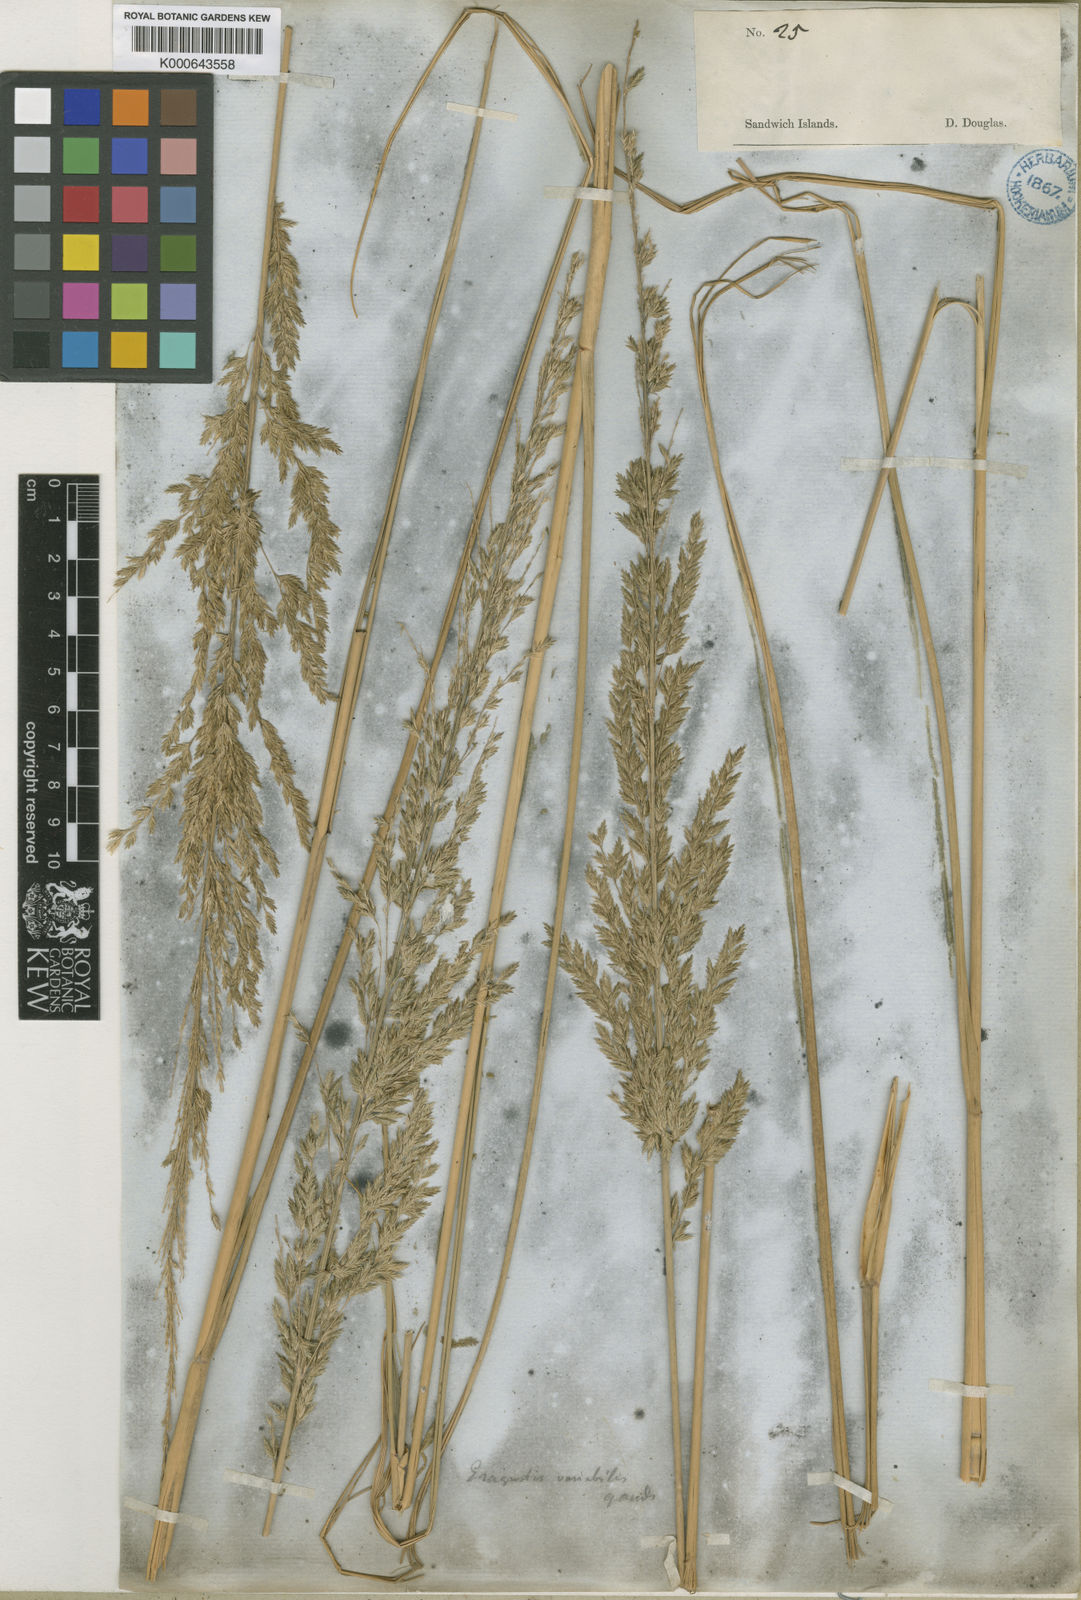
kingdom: Plantae
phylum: Tracheophyta
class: Liliopsida
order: Poales
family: Poaceae
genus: Eragrostis
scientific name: Eragrostis
